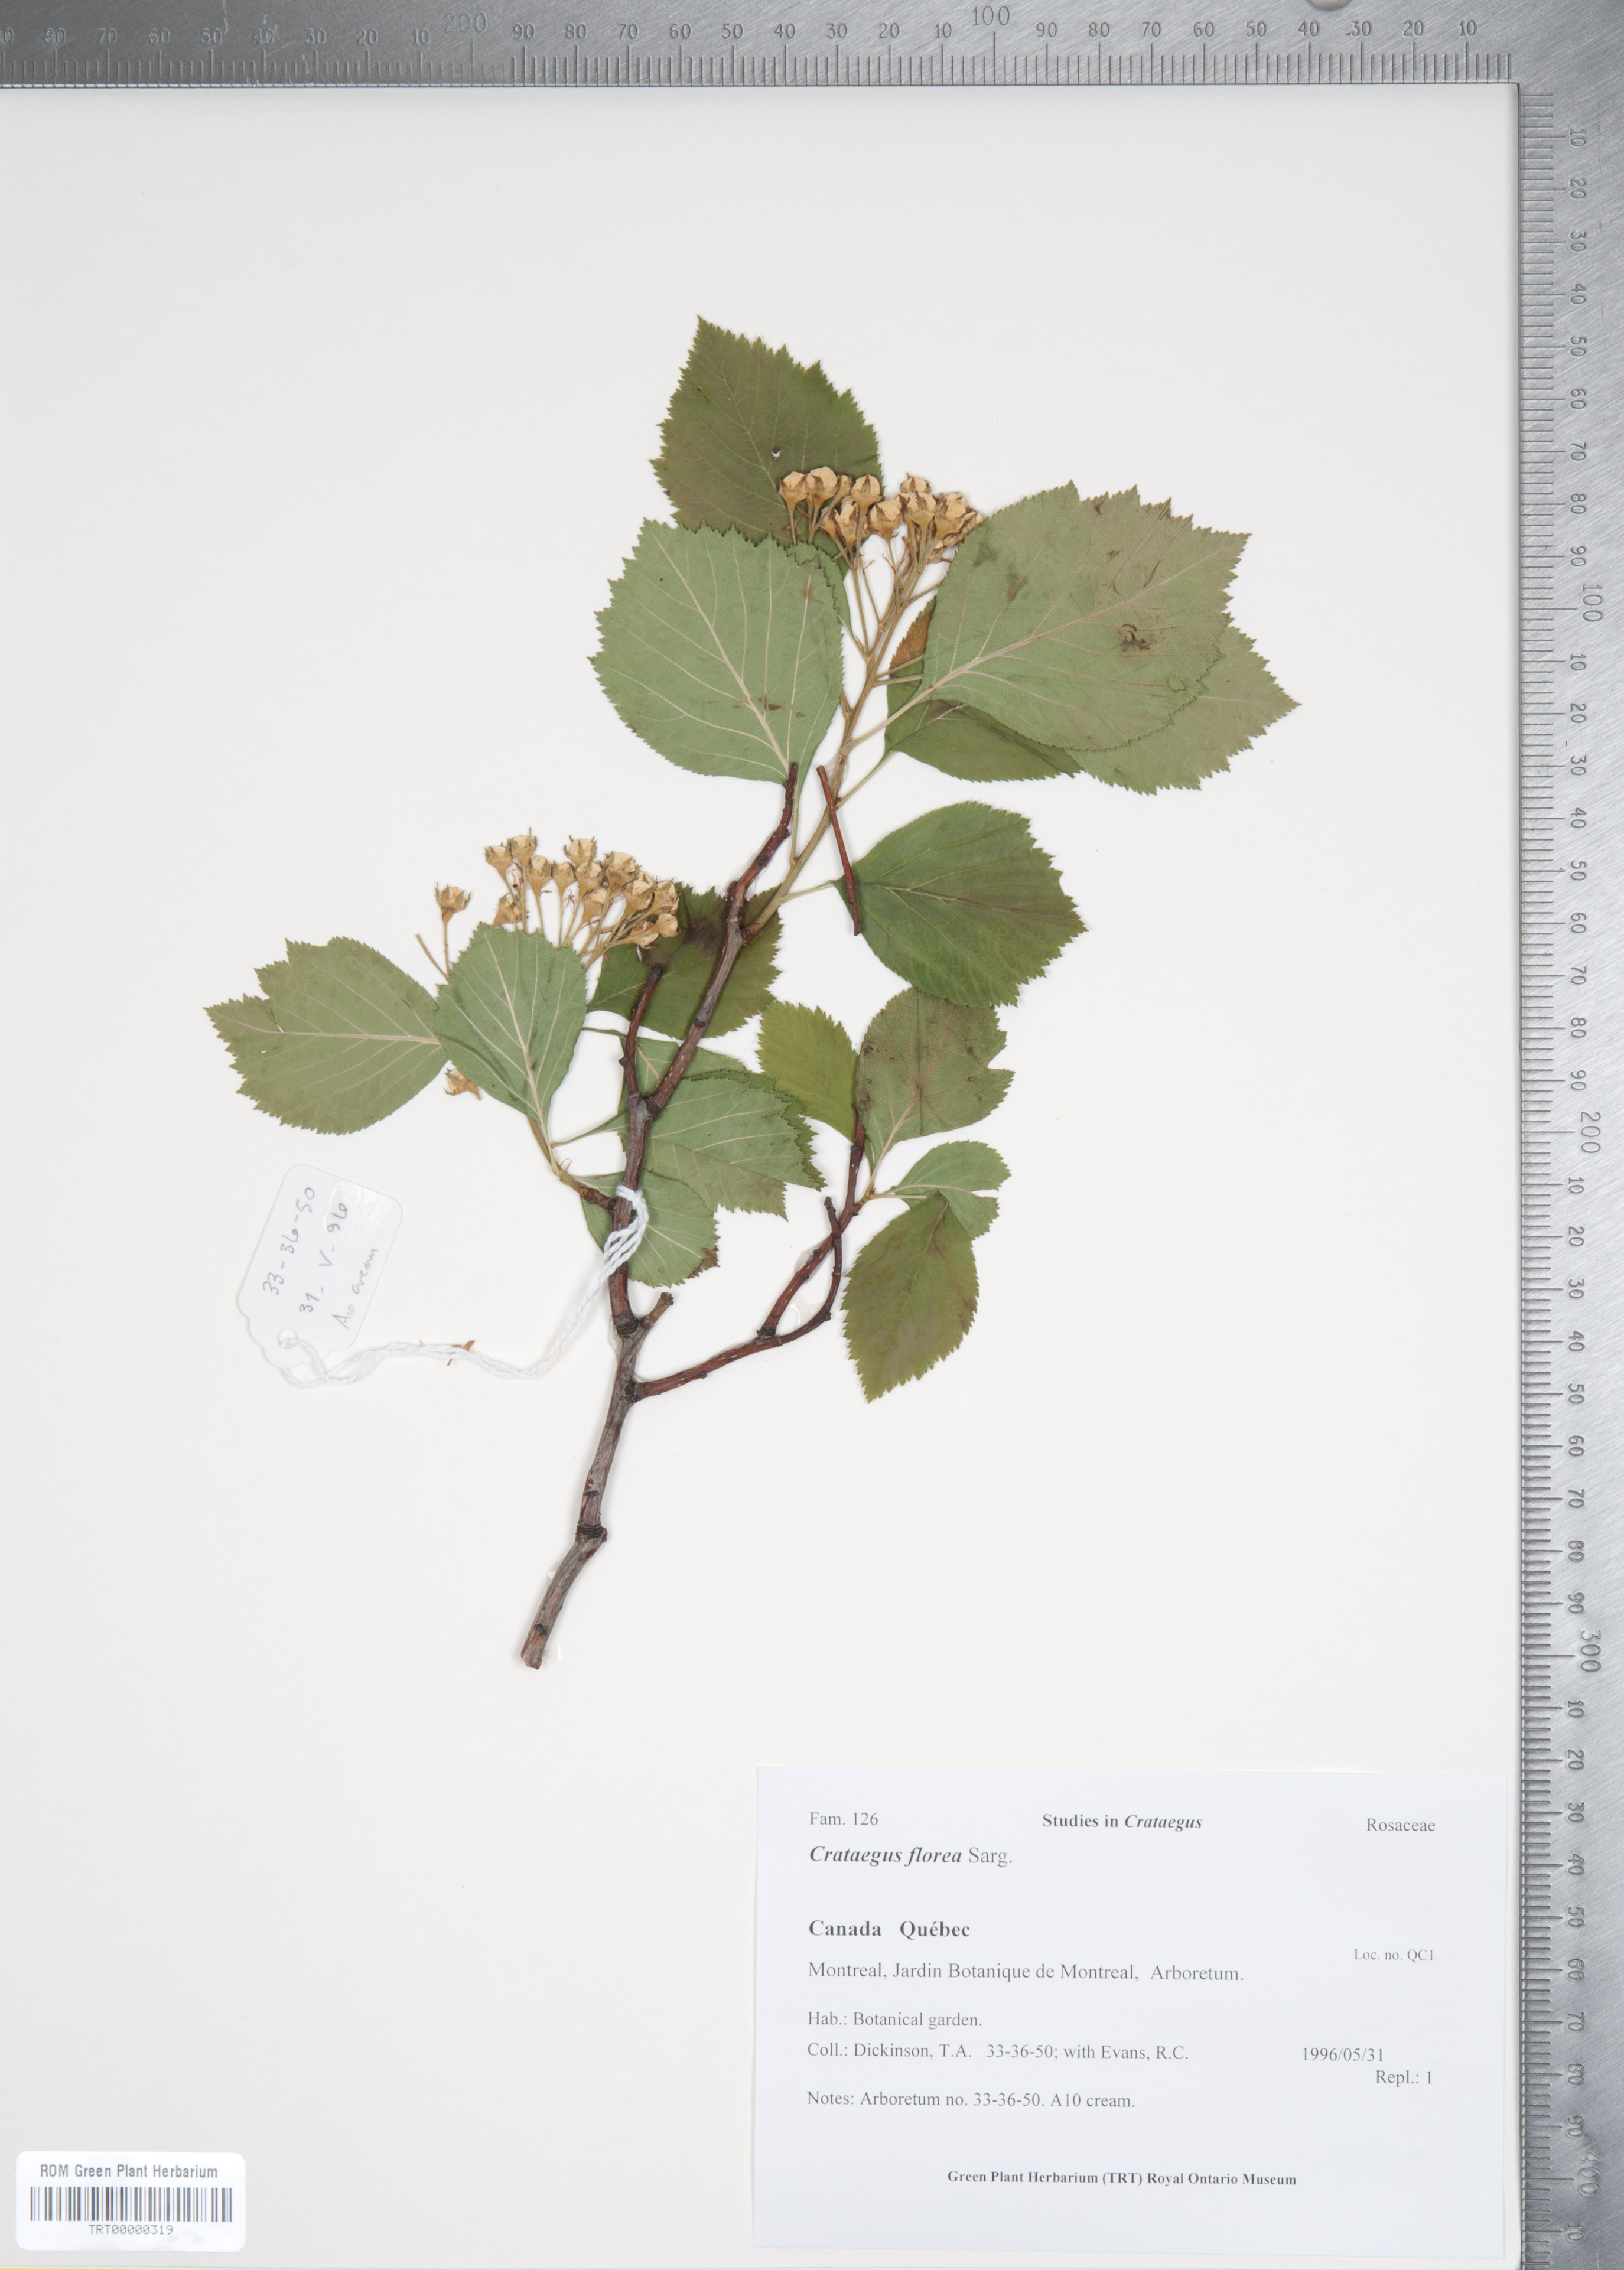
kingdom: Plantae
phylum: Tracheophyta
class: Magnoliopsida
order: Rosales
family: Rosaceae
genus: Crataegus
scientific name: Crataegus florea
